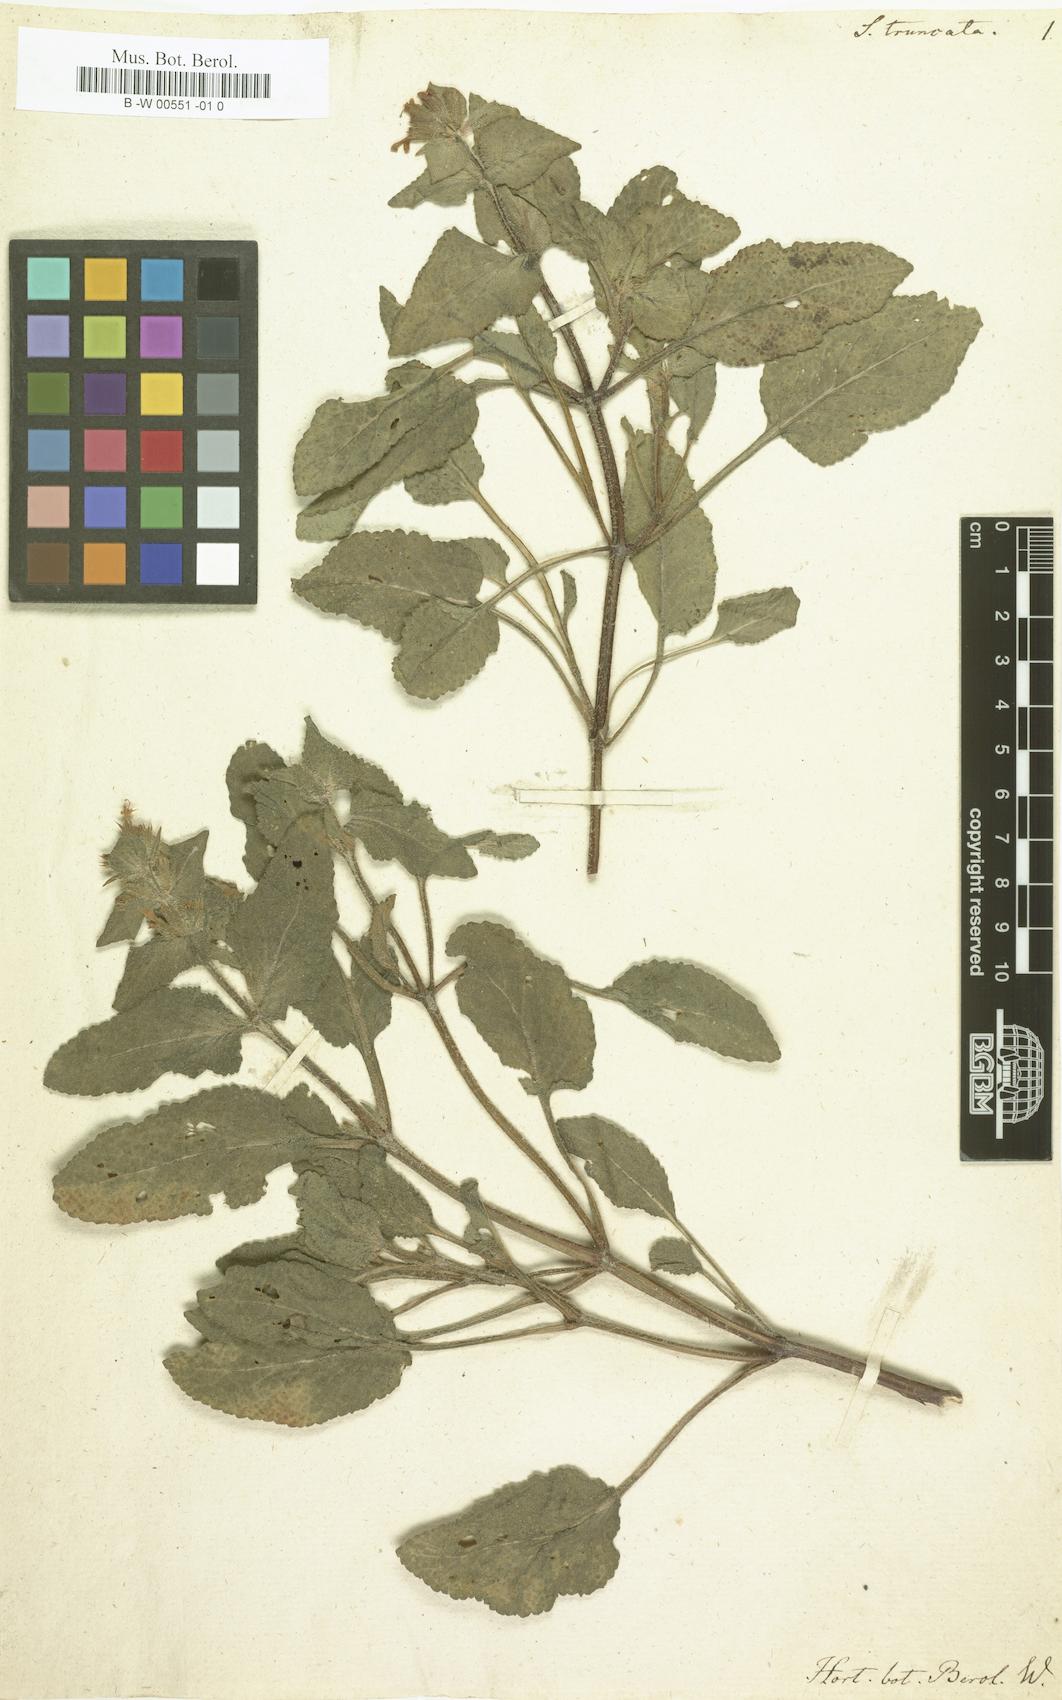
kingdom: Plantae
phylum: Tracheophyta
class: Magnoliopsida
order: Lamiales
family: Lamiaceae
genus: Salvia
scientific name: Salvia viridis
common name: Annual clary
